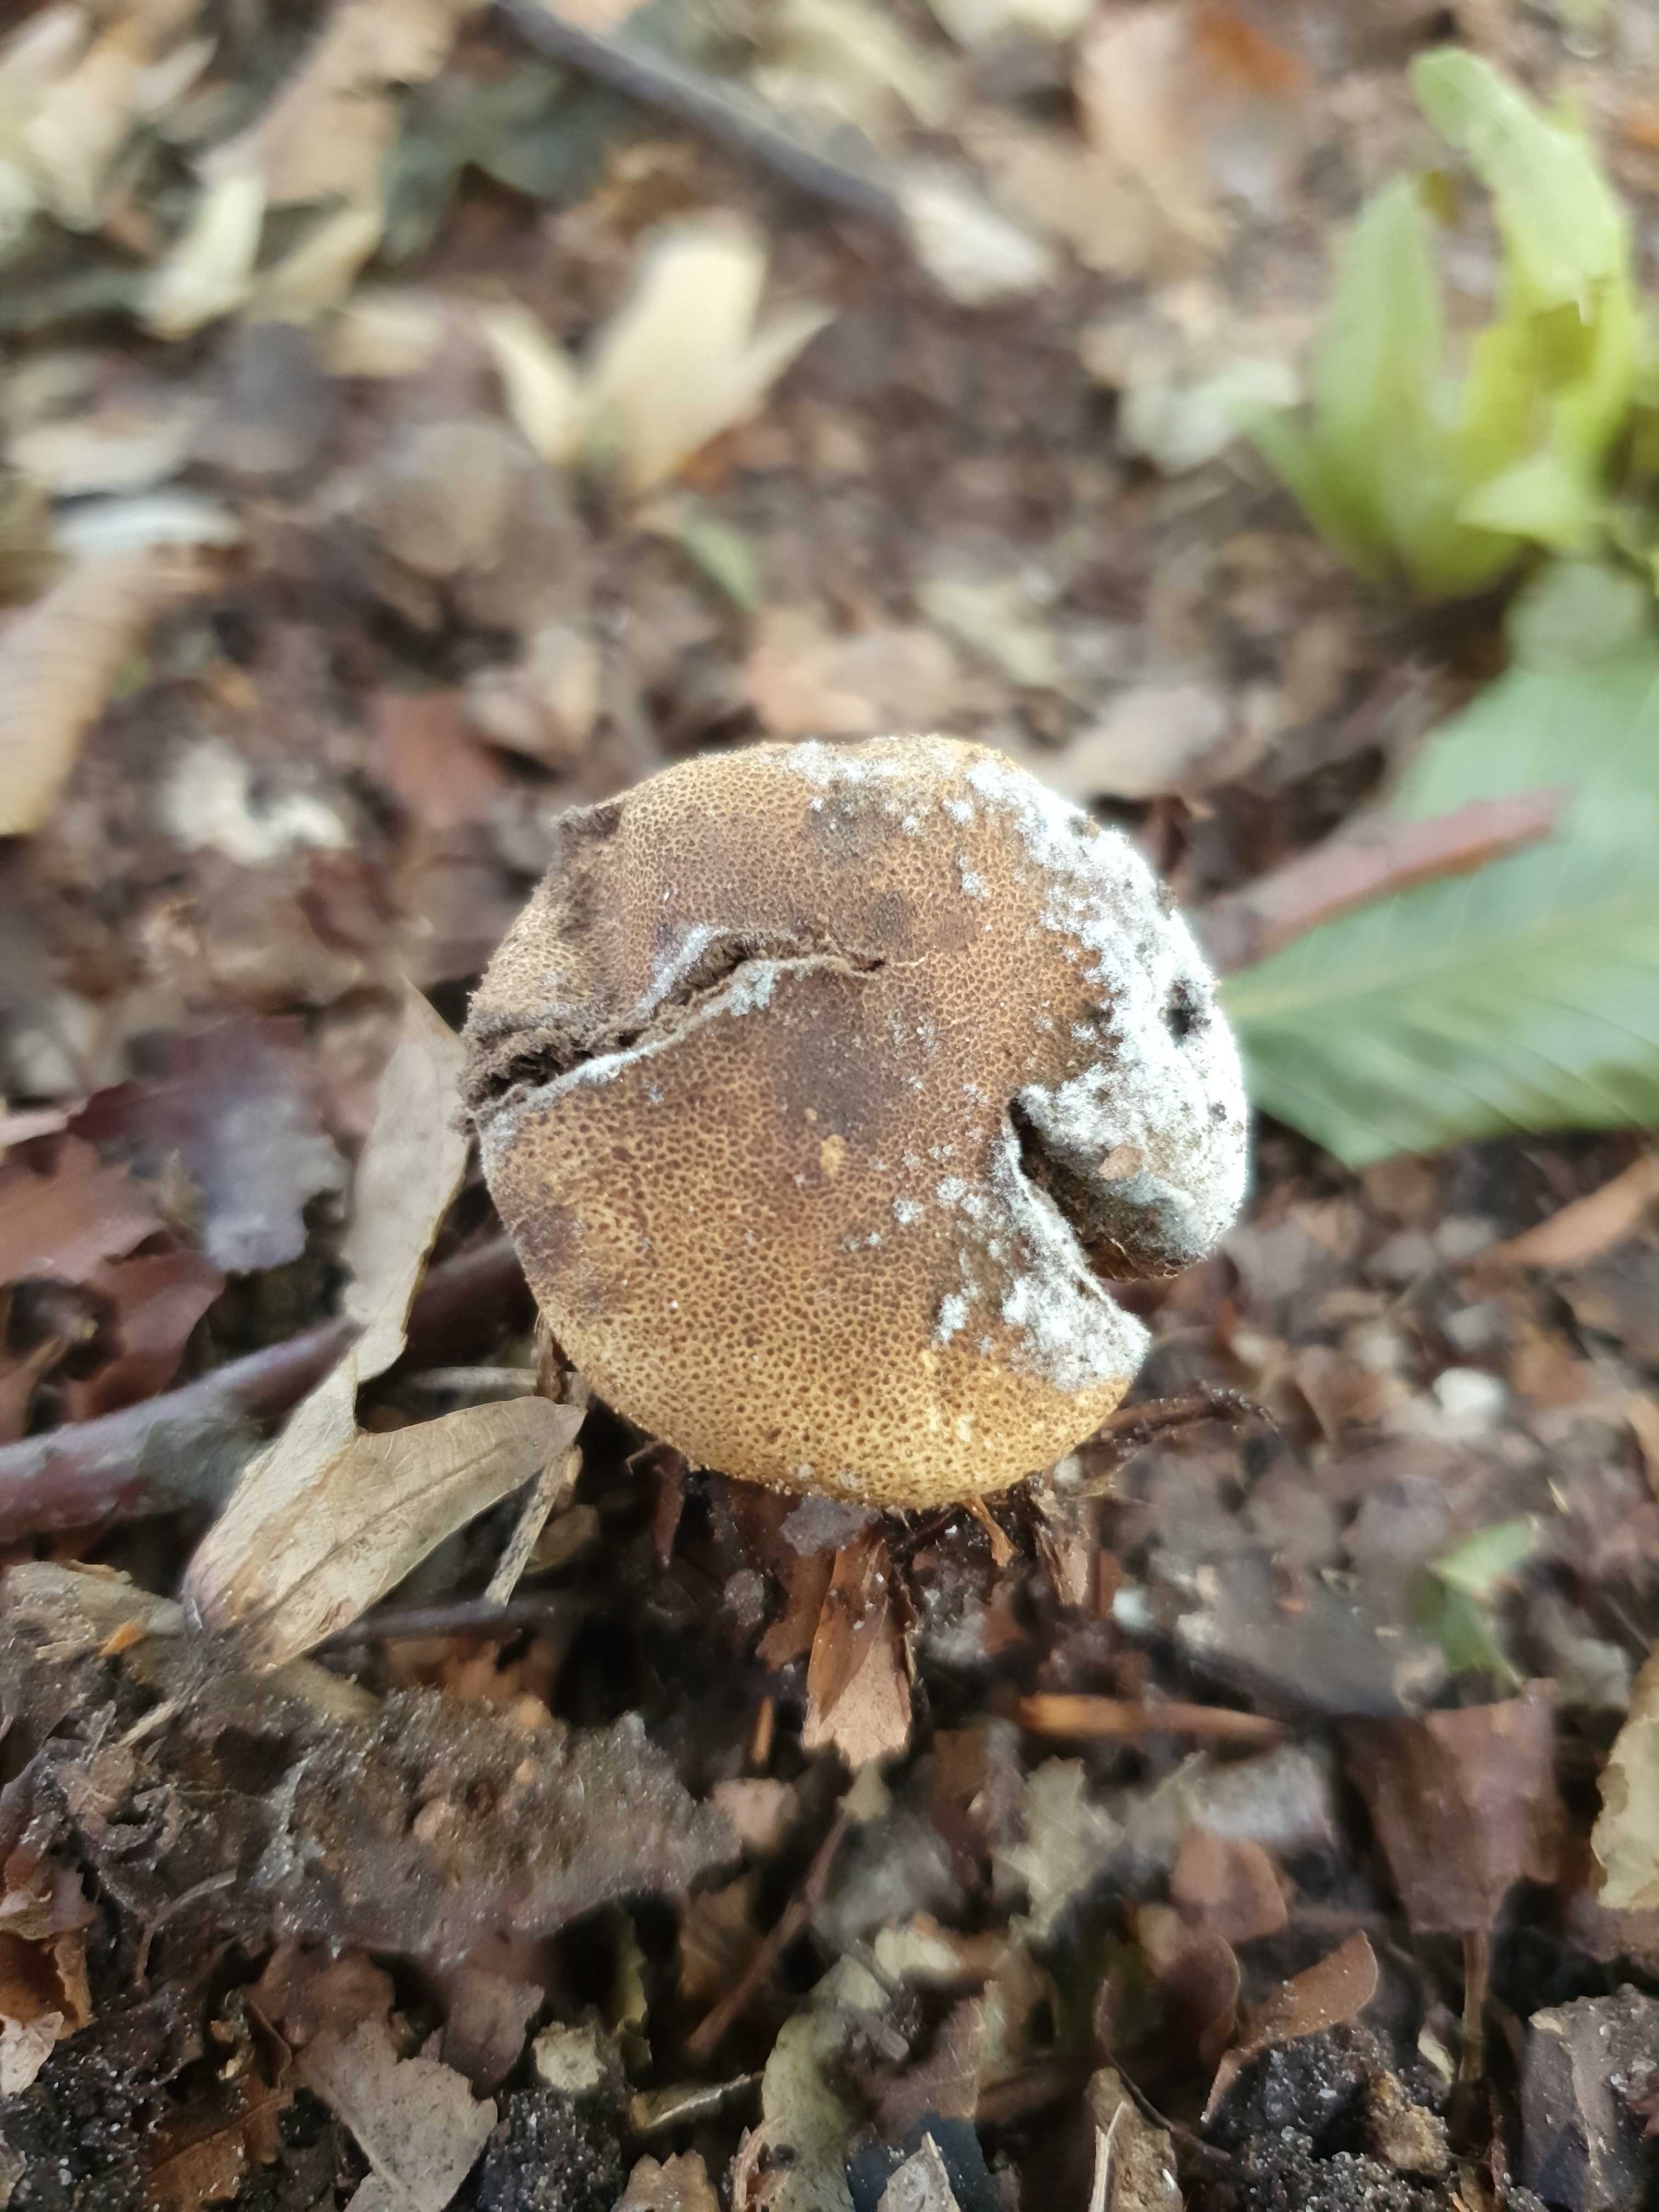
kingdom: Fungi
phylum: Basidiomycota
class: Agaricomycetes
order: Boletales
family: Sclerodermataceae
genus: Scleroderma
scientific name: Scleroderma areolatum
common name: plettet bruskbold
